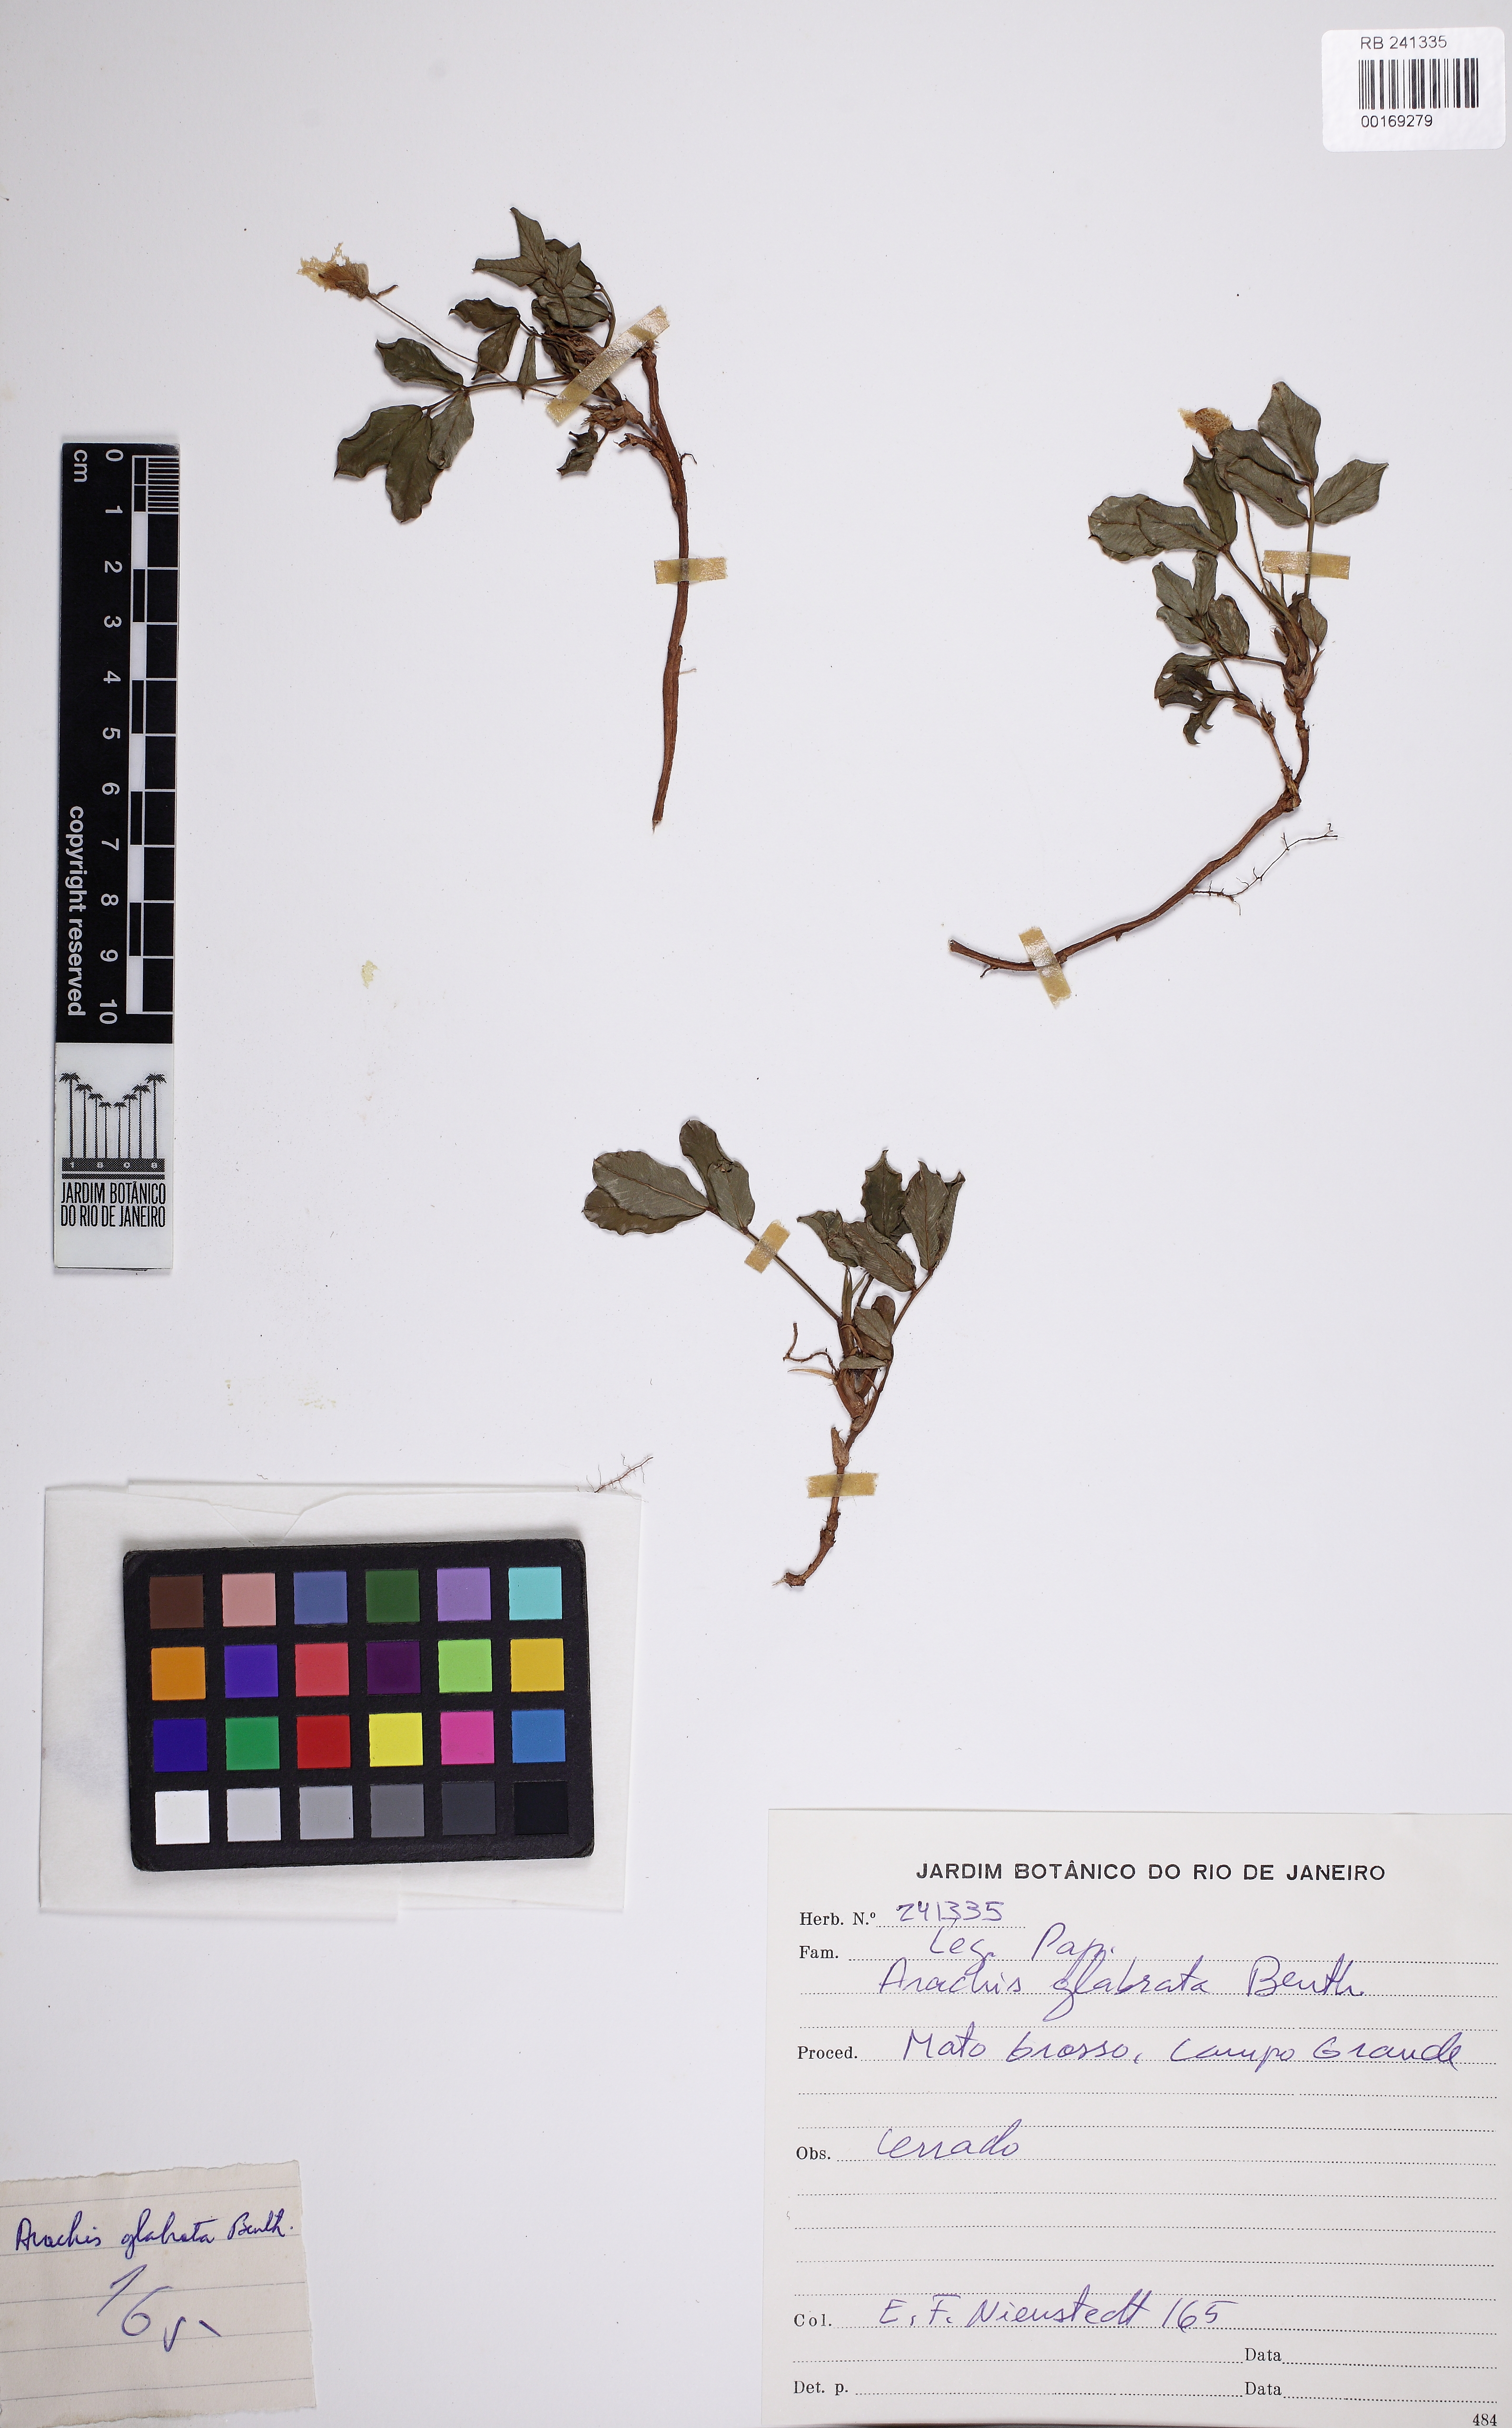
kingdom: Plantae
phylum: Tracheophyta
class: Magnoliopsida
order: Fabales
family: Fabaceae
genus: Arachis
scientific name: Arachis glabrata
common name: Rhizoma peanut
